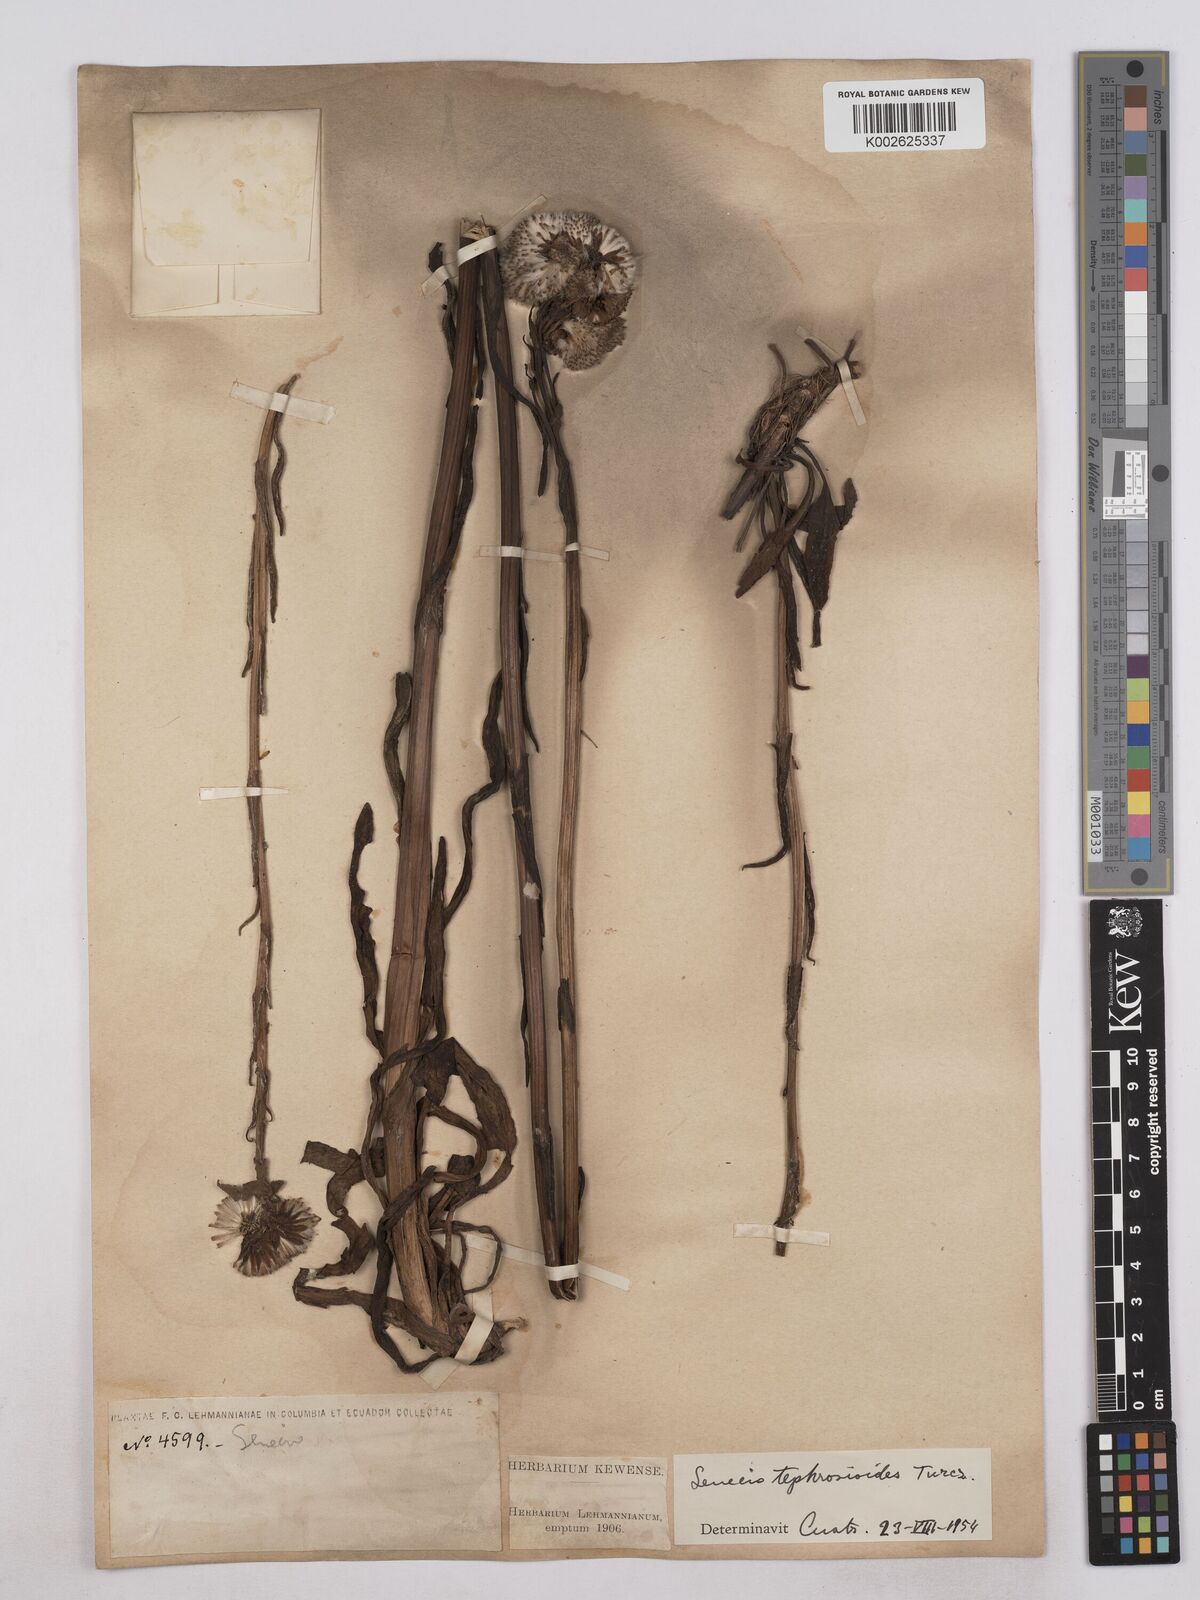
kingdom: Plantae
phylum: Tracheophyta
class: Magnoliopsida
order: Asterales
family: Asteraceae
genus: Senecio
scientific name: Senecio tephrosioides
